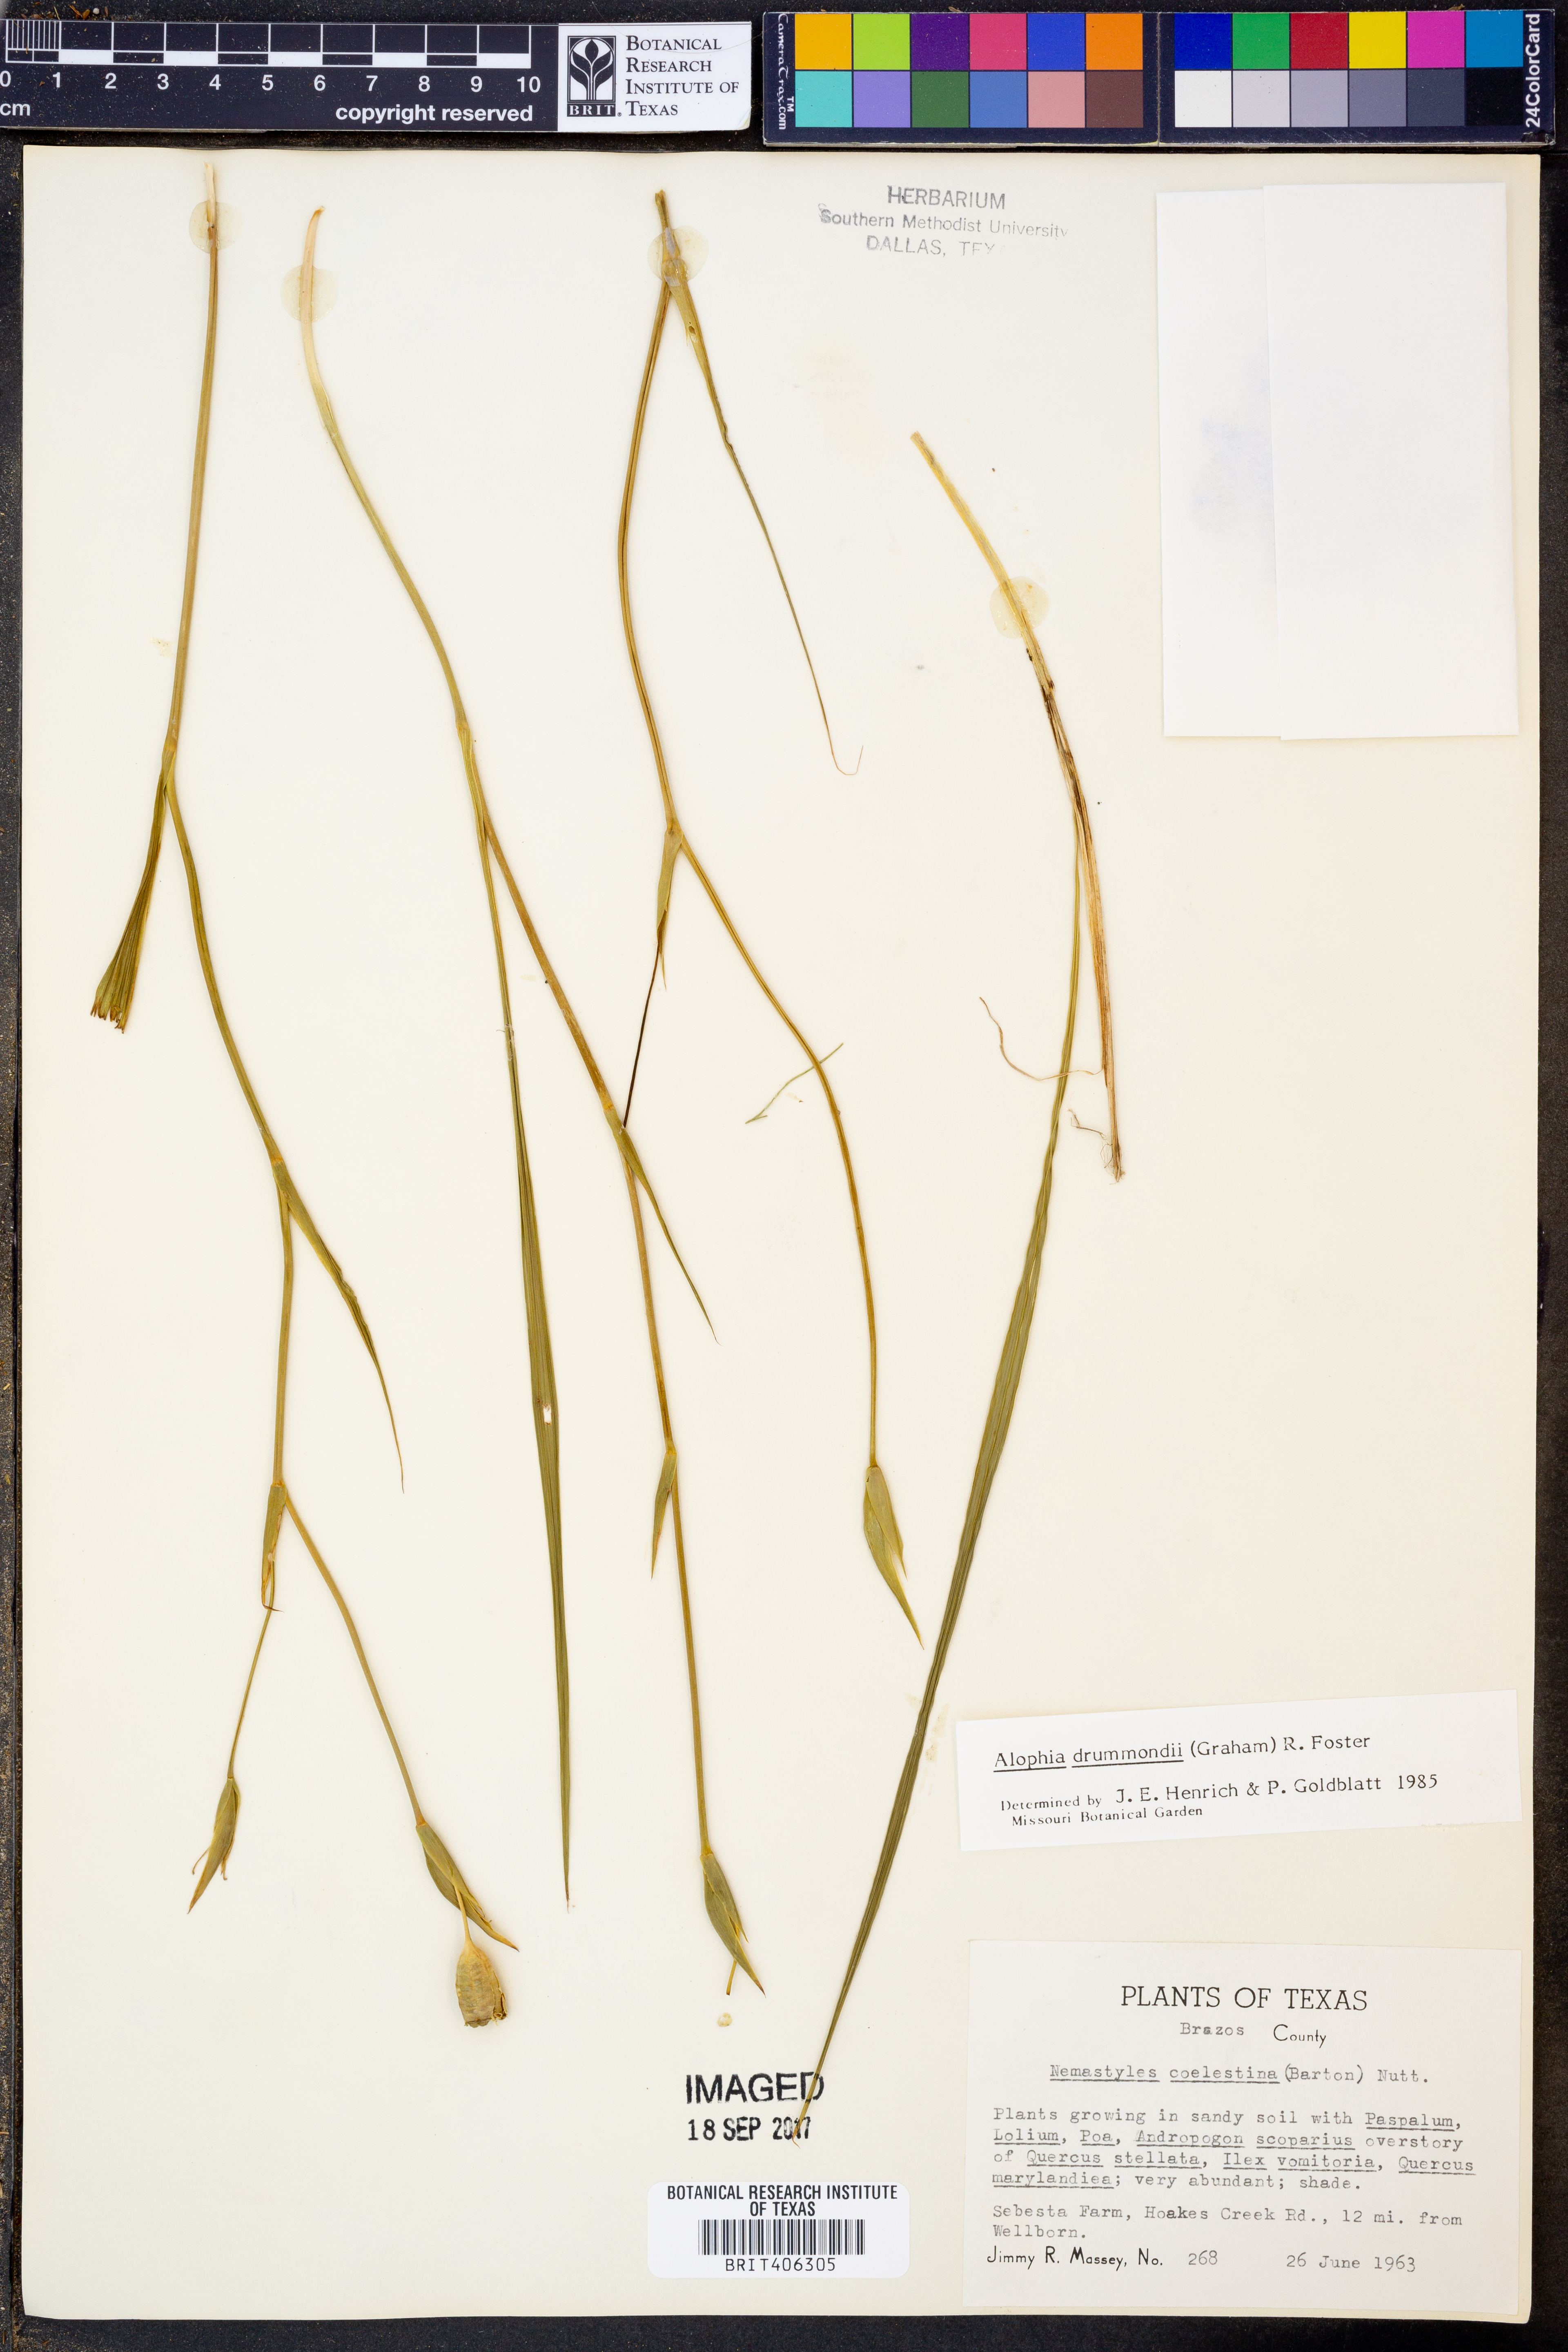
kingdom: Plantae
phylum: Tracheophyta
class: Liliopsida
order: Asparagales
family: Iridaceae
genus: Alophia
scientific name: Alophia drummondii
